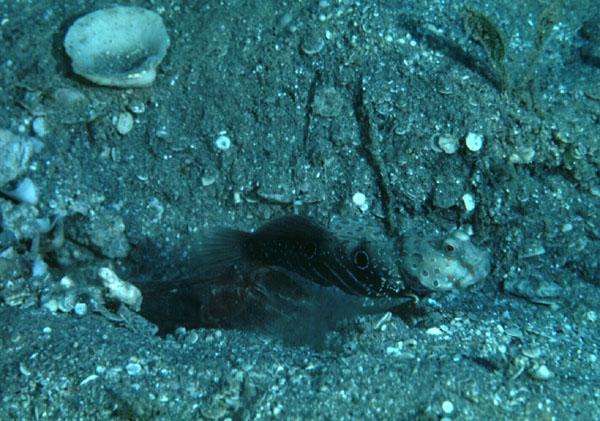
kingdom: Animalia
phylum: Chordata
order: Perciformes
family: Gobiidae
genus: Cryptocentrus
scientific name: Cryptocentrus caeruleopunctatus
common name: Blue-and-red-spotted goby
